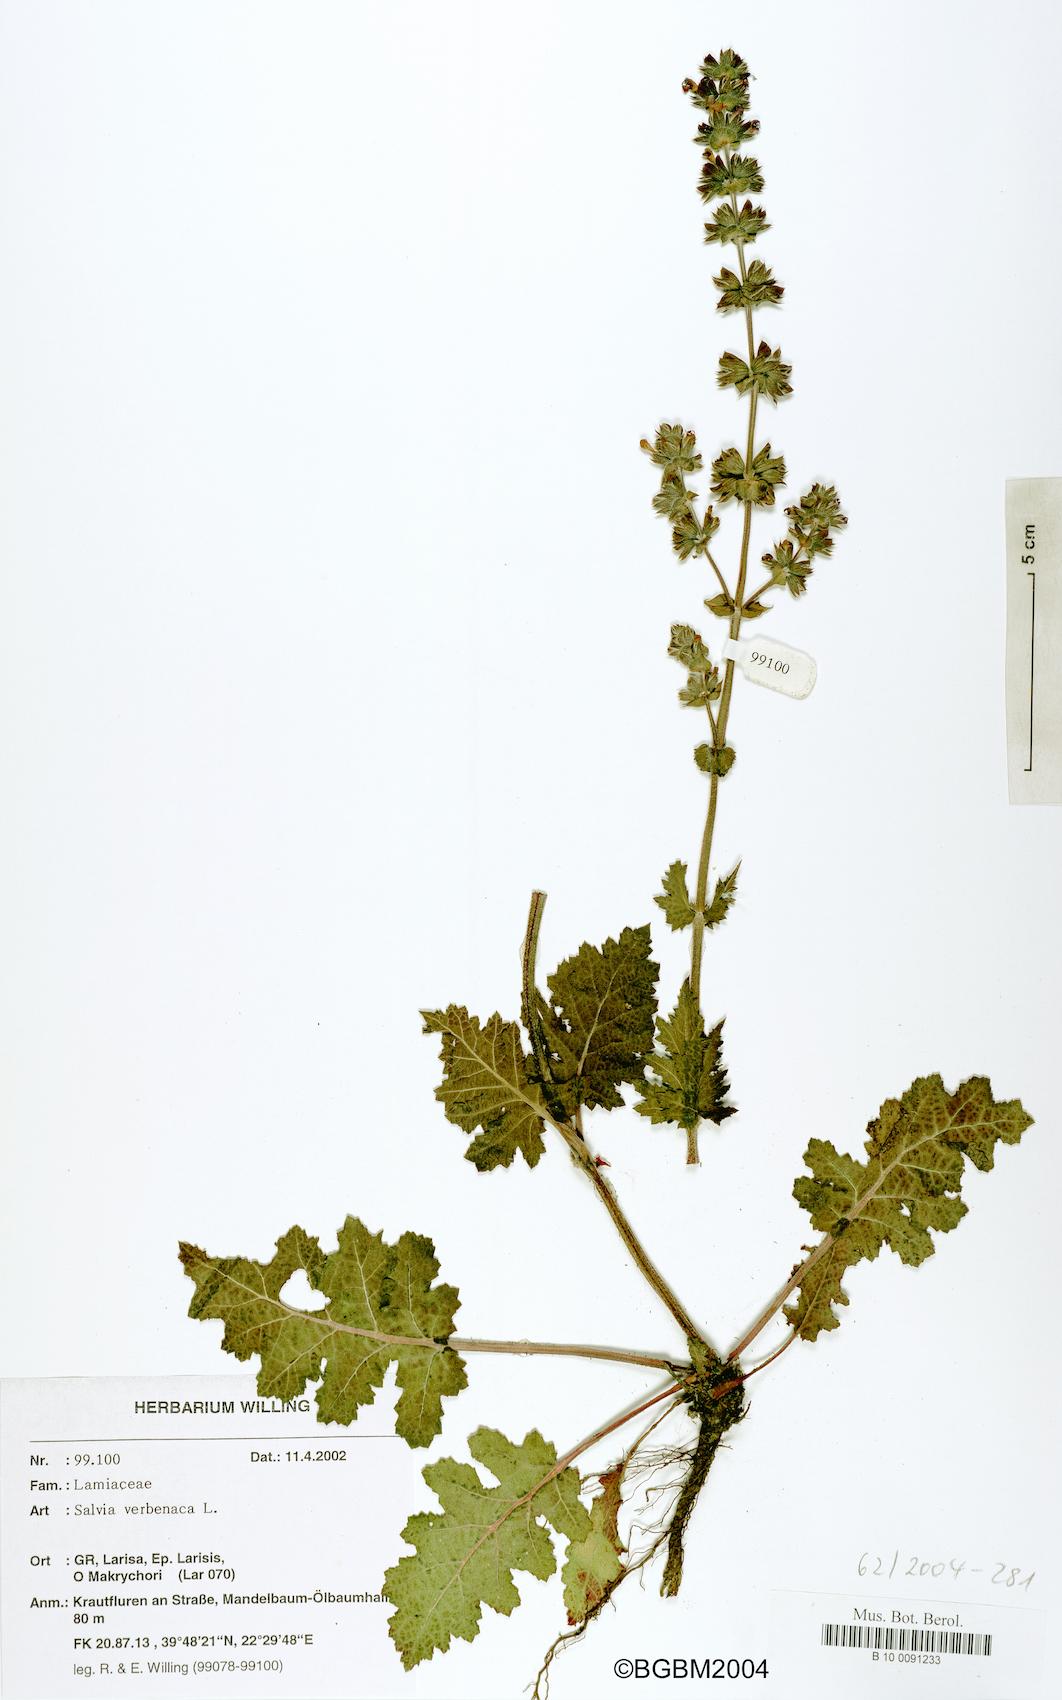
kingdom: Plantae
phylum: Tracheophyta
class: Magnoliopsida
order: Lamiales
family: Lamiaceae
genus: Salvia
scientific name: Salvia verbenaca
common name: Wild clary
